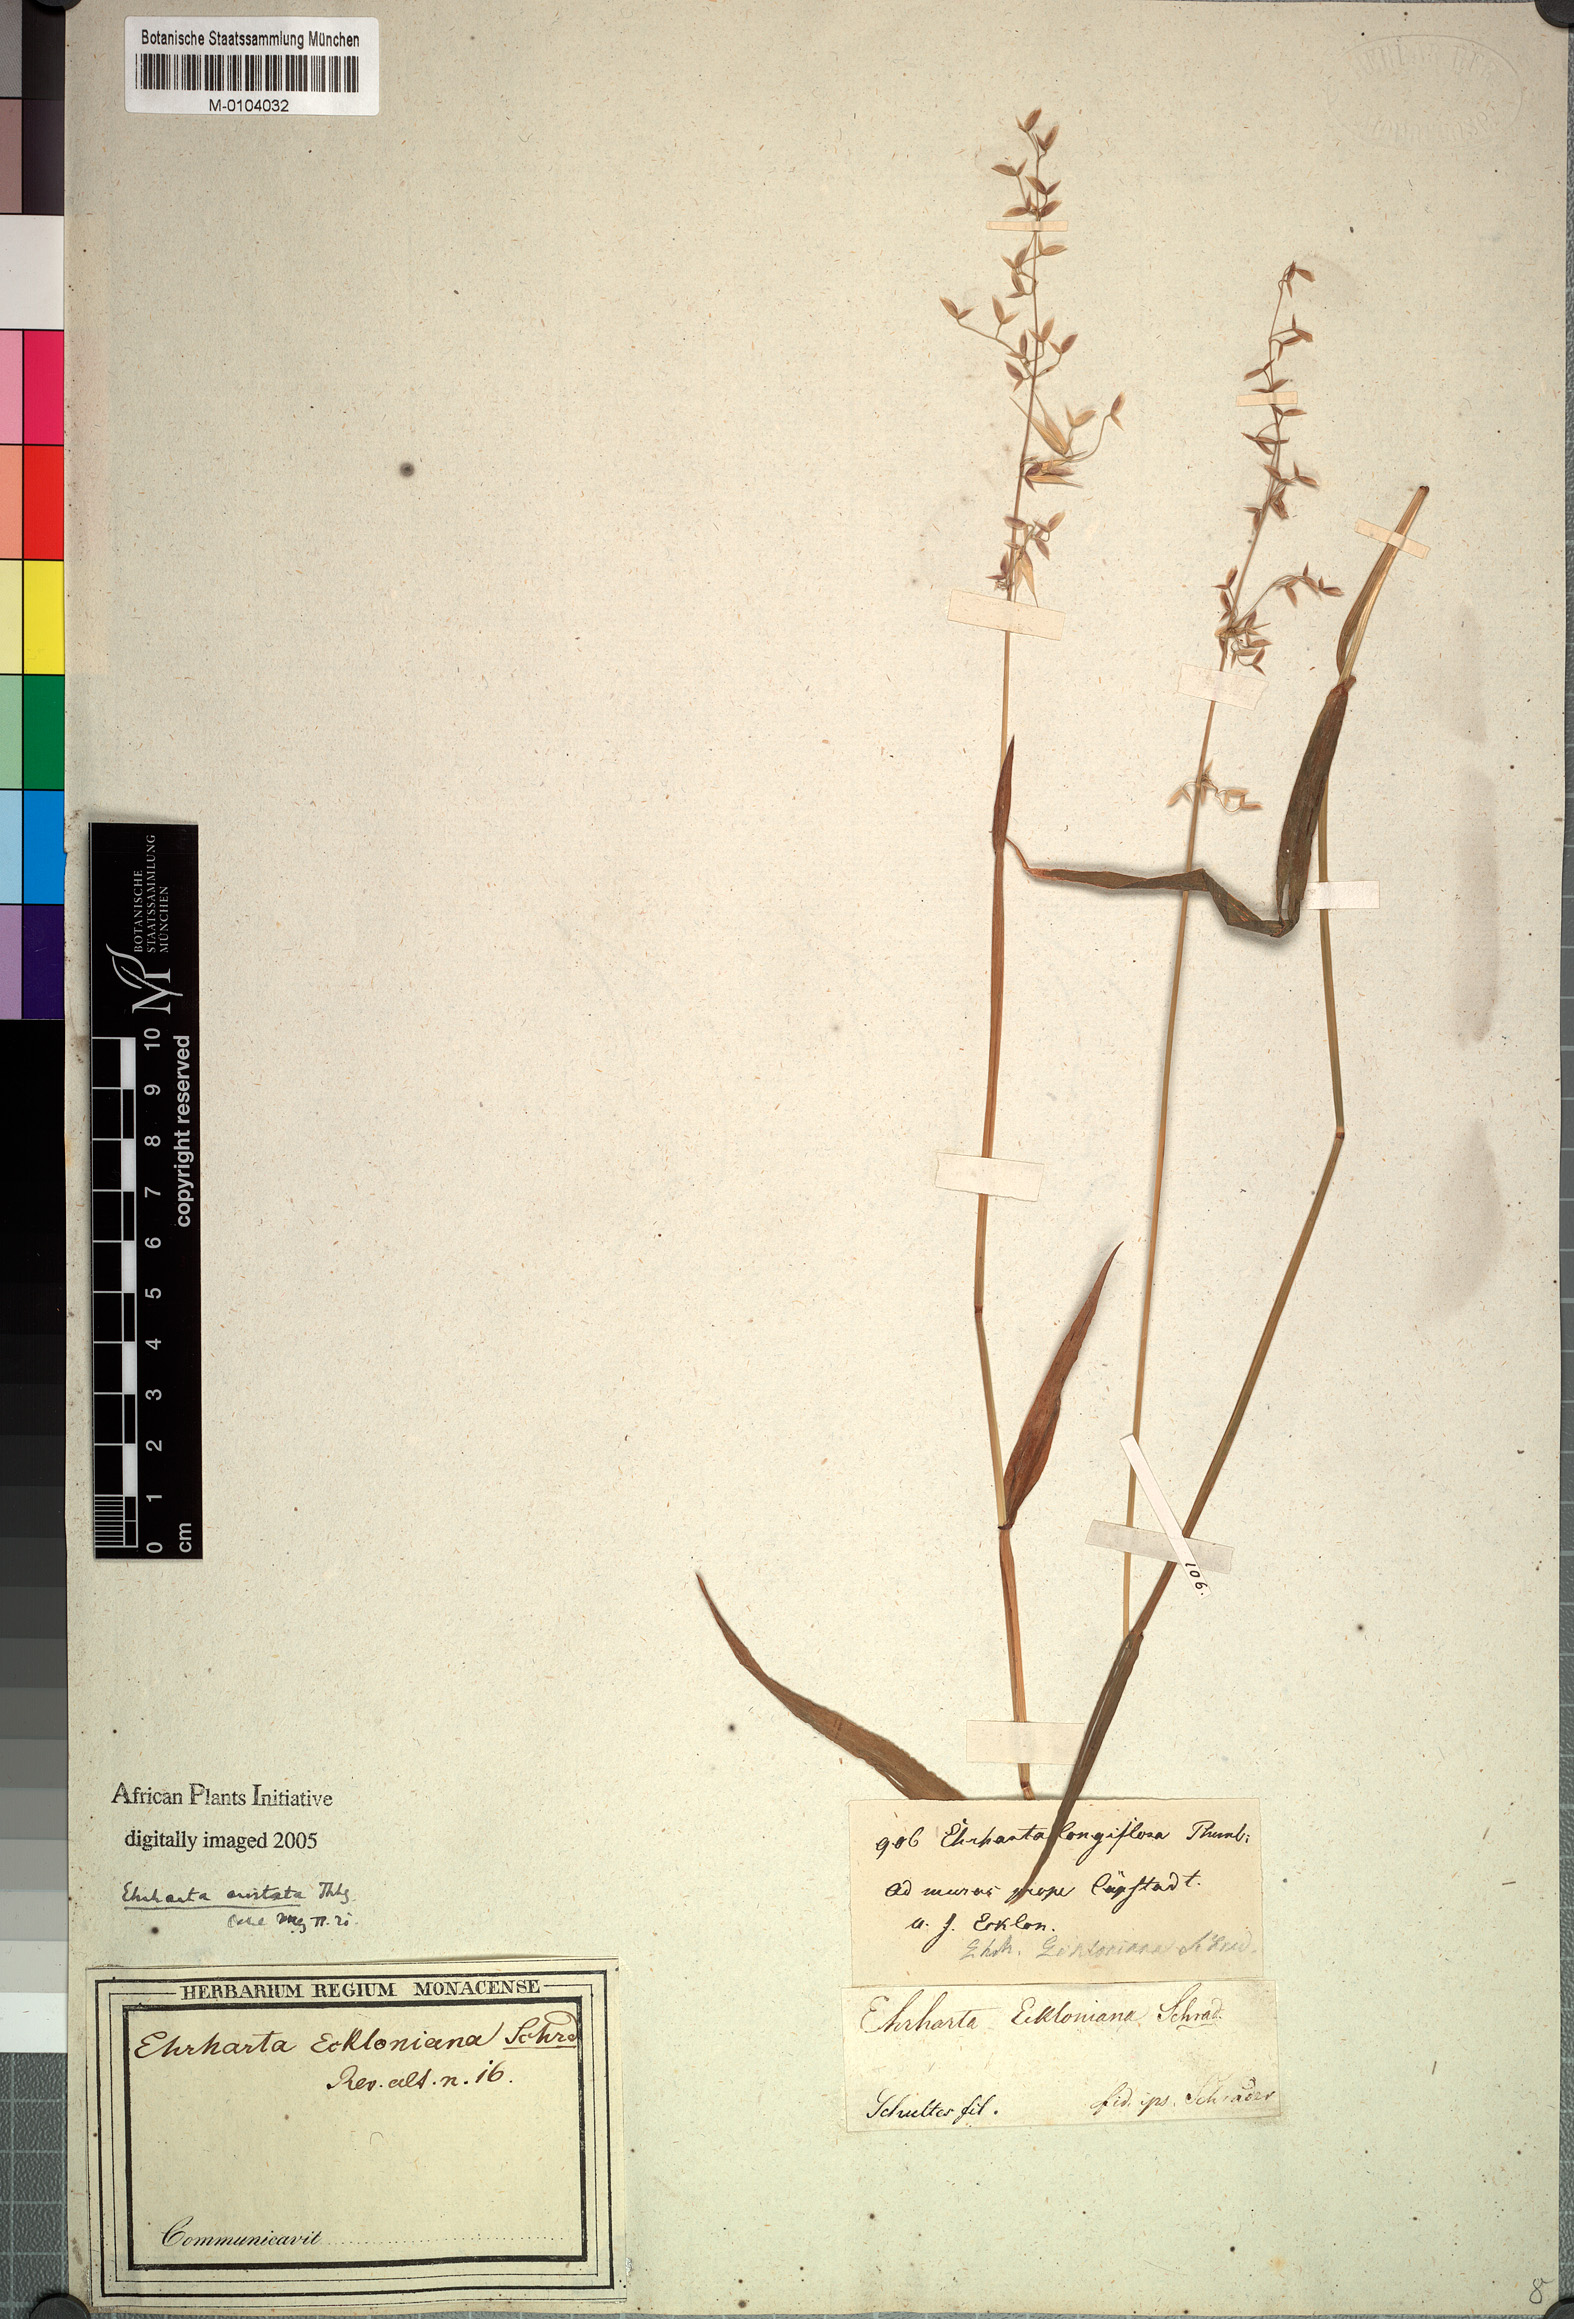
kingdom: Plantae
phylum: Tracheophyta
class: Liliopsida
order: Poales
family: Poaceae
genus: Ehrharta
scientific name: Ehrharta longiflora
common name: Longflowered veldtgrass
